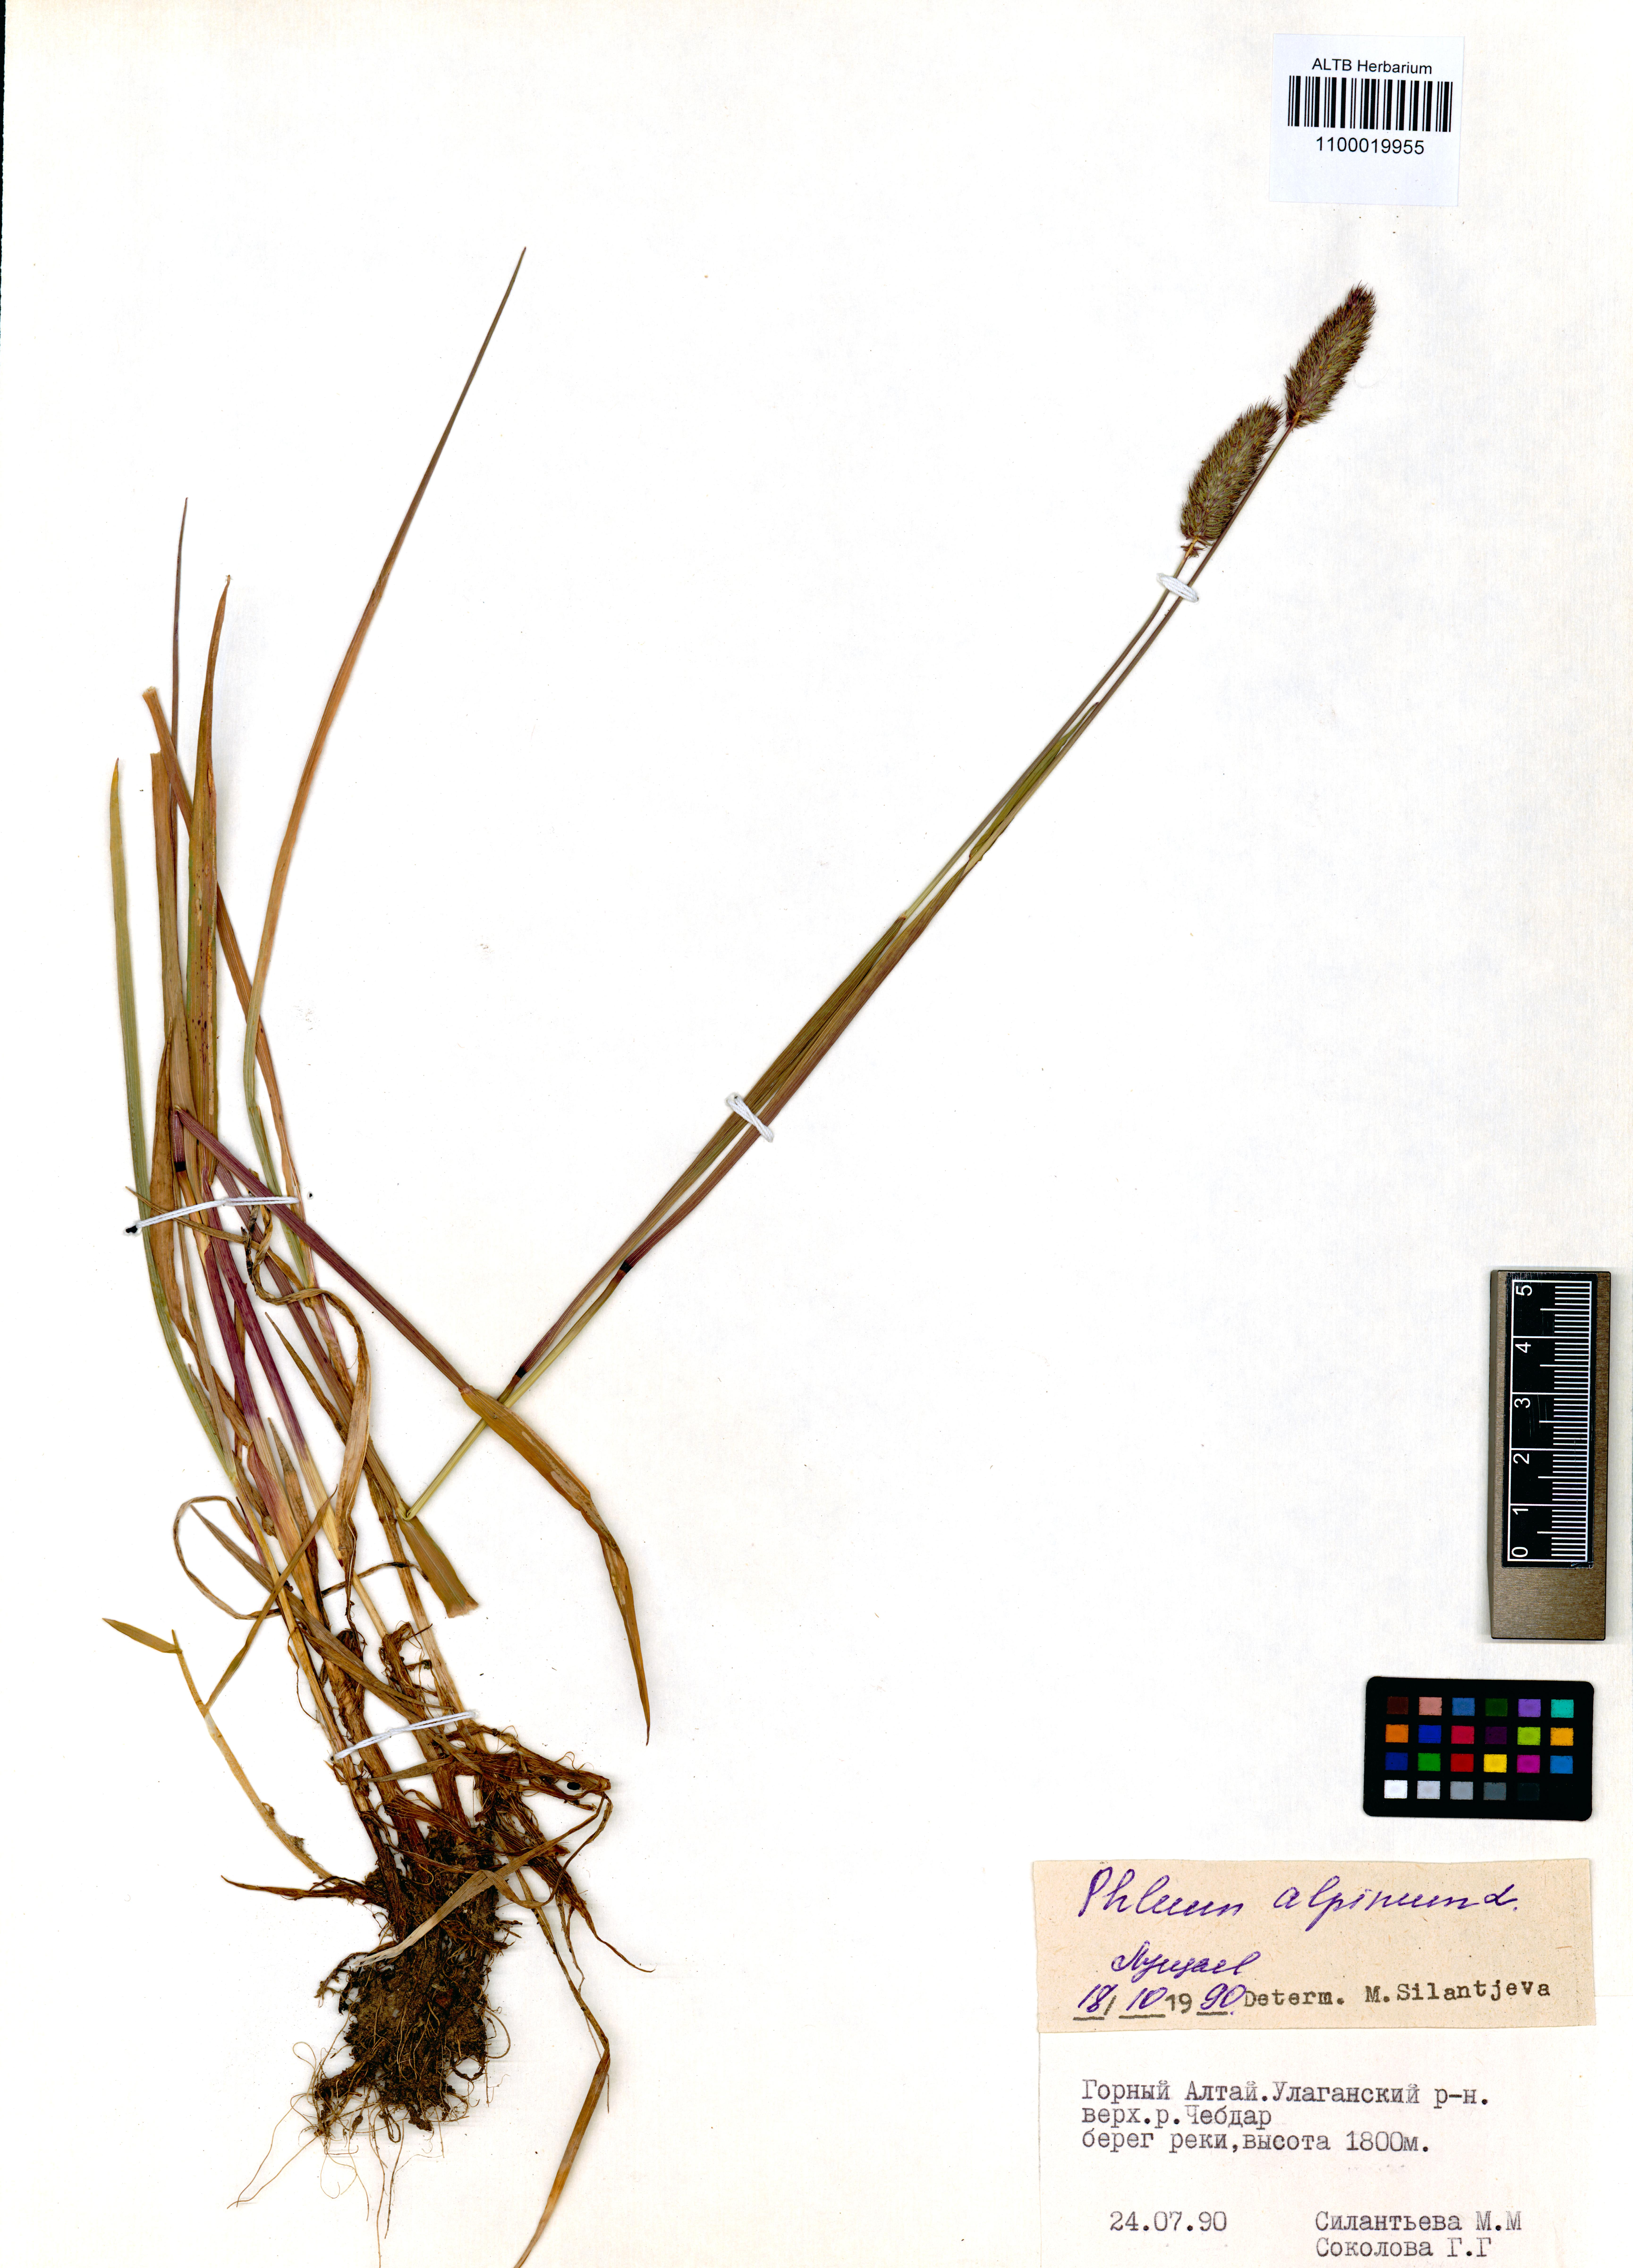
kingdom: Plantae
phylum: Tracheophyta
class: Liliopsida
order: Poales
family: Poaceae
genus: Phleum
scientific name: Phleum alpinum
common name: Alpine cat's-tail
